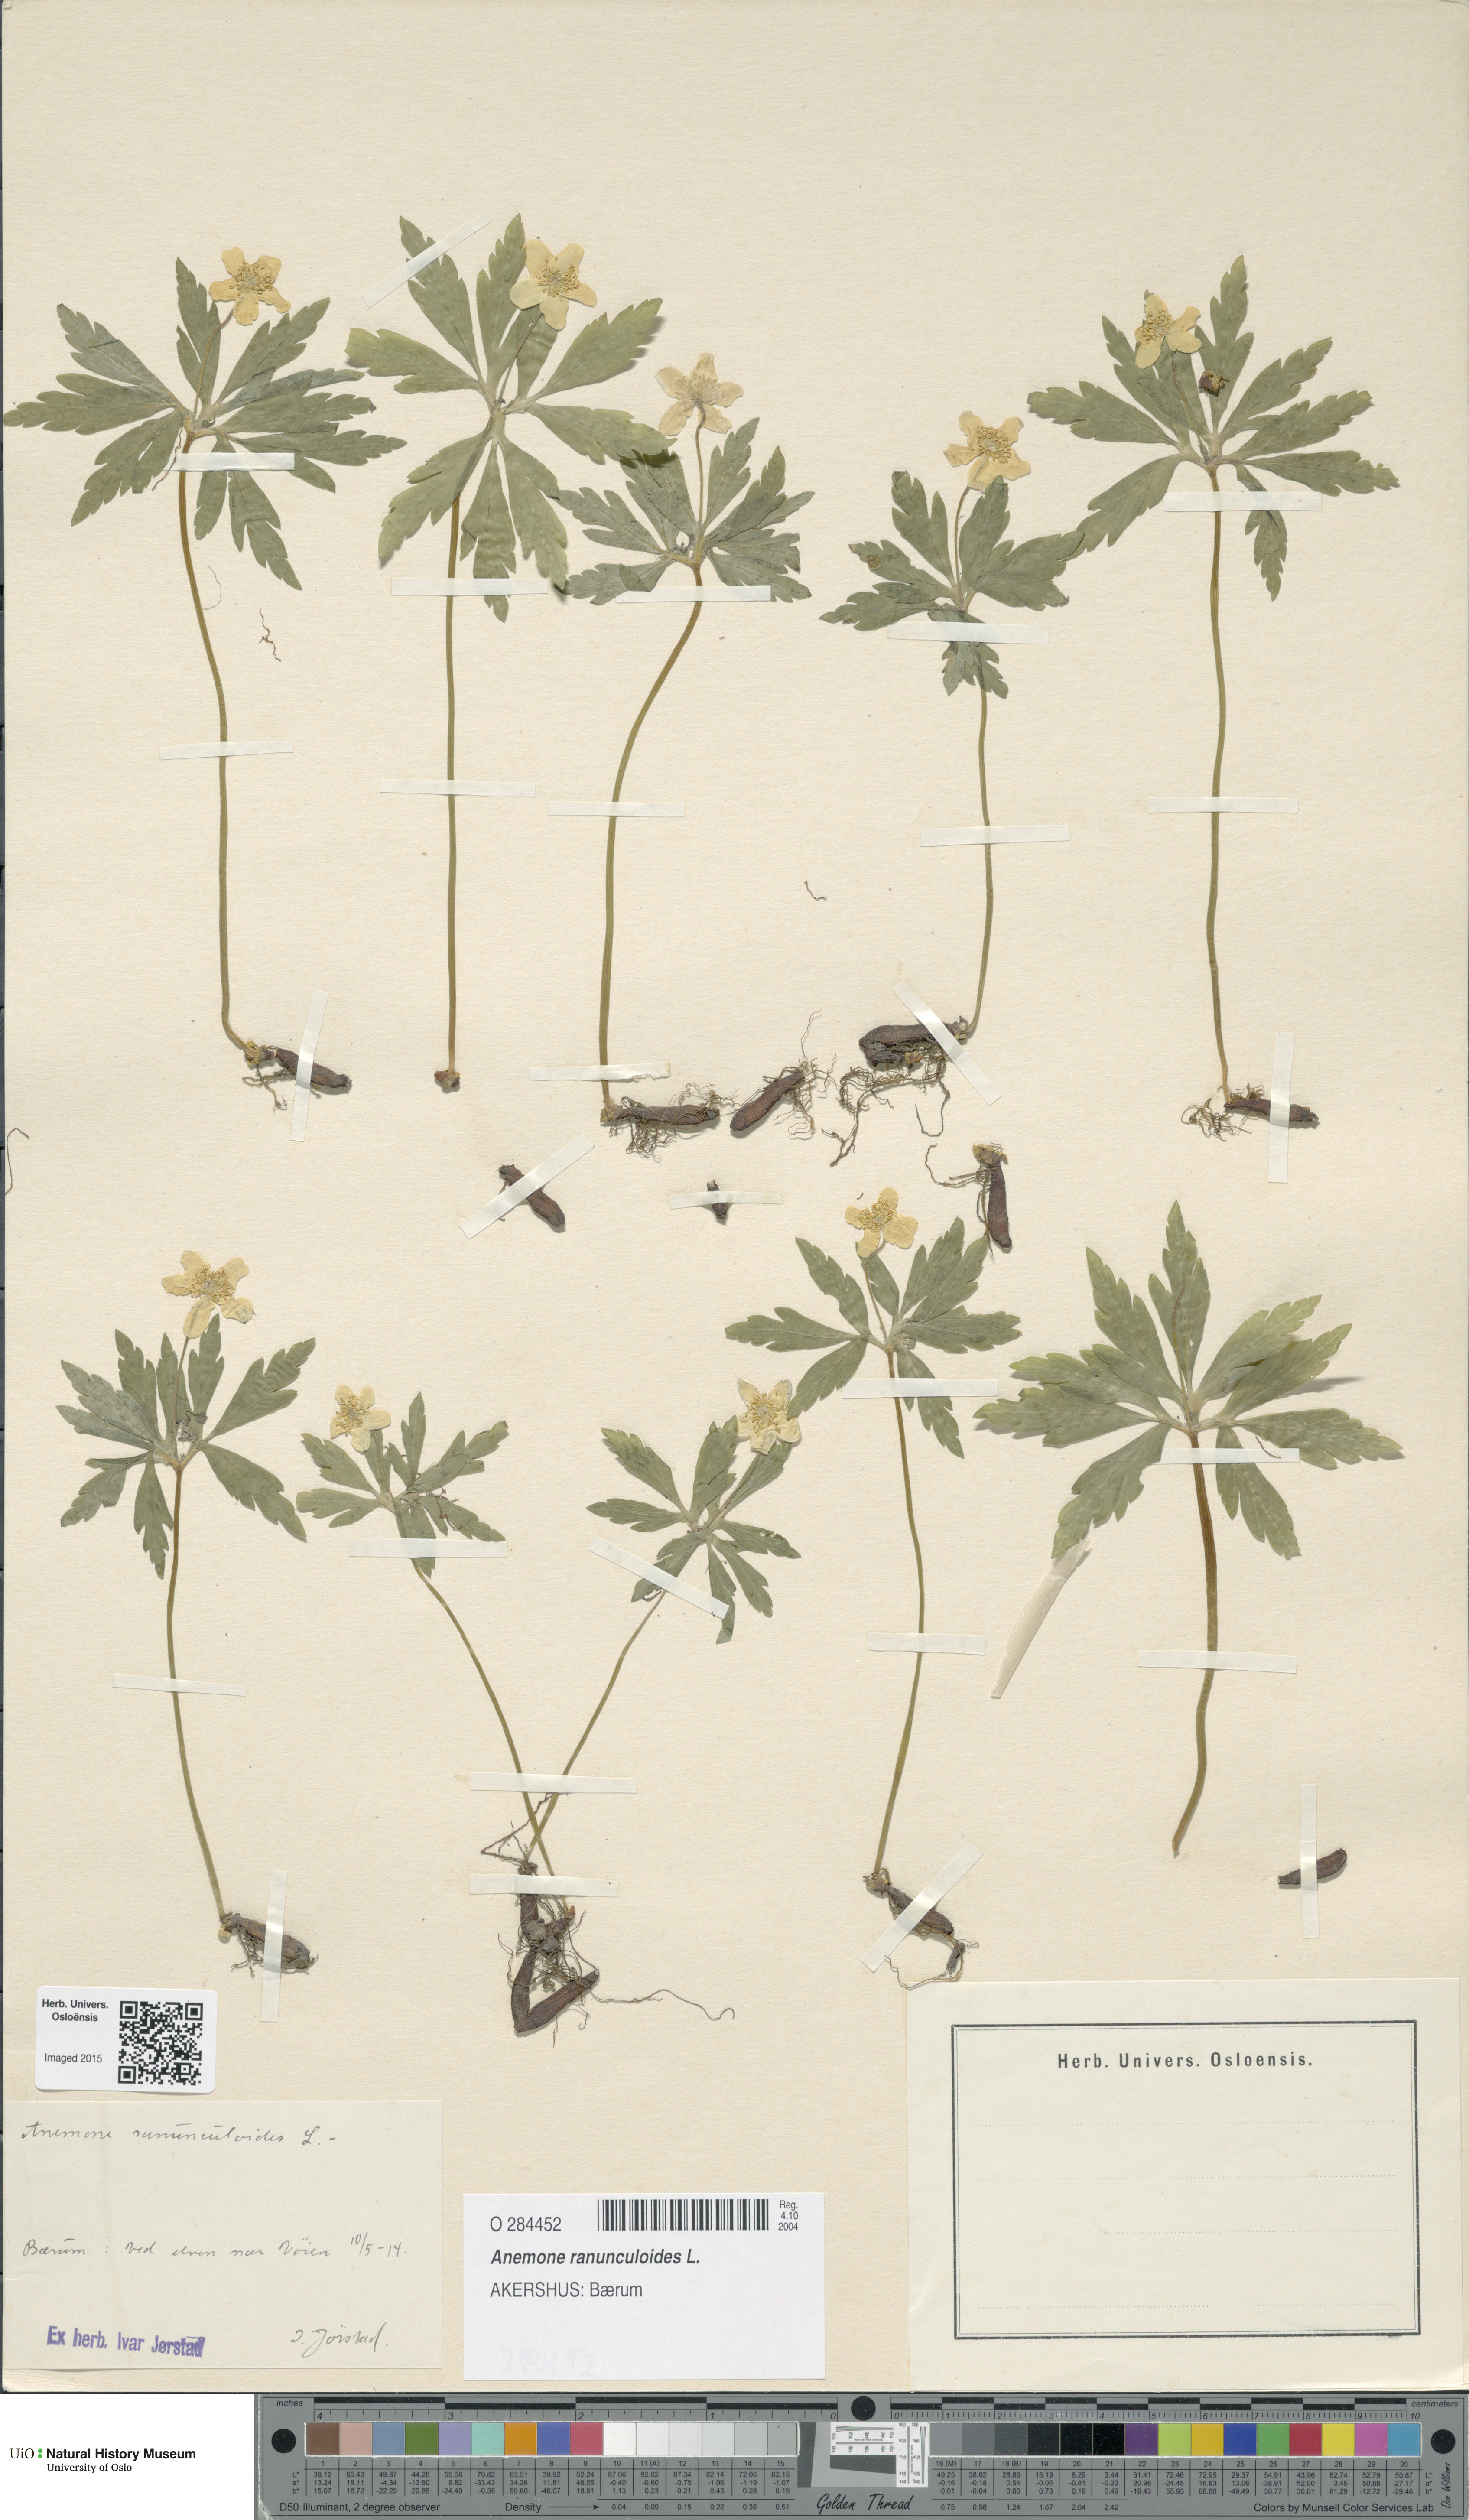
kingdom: Plantae
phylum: Tracheophyta
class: Magnoliopsida
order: Ranunculales
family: Ranunculaceae
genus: Anemone
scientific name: Anemone ranunculoides
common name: Yellow anemone
